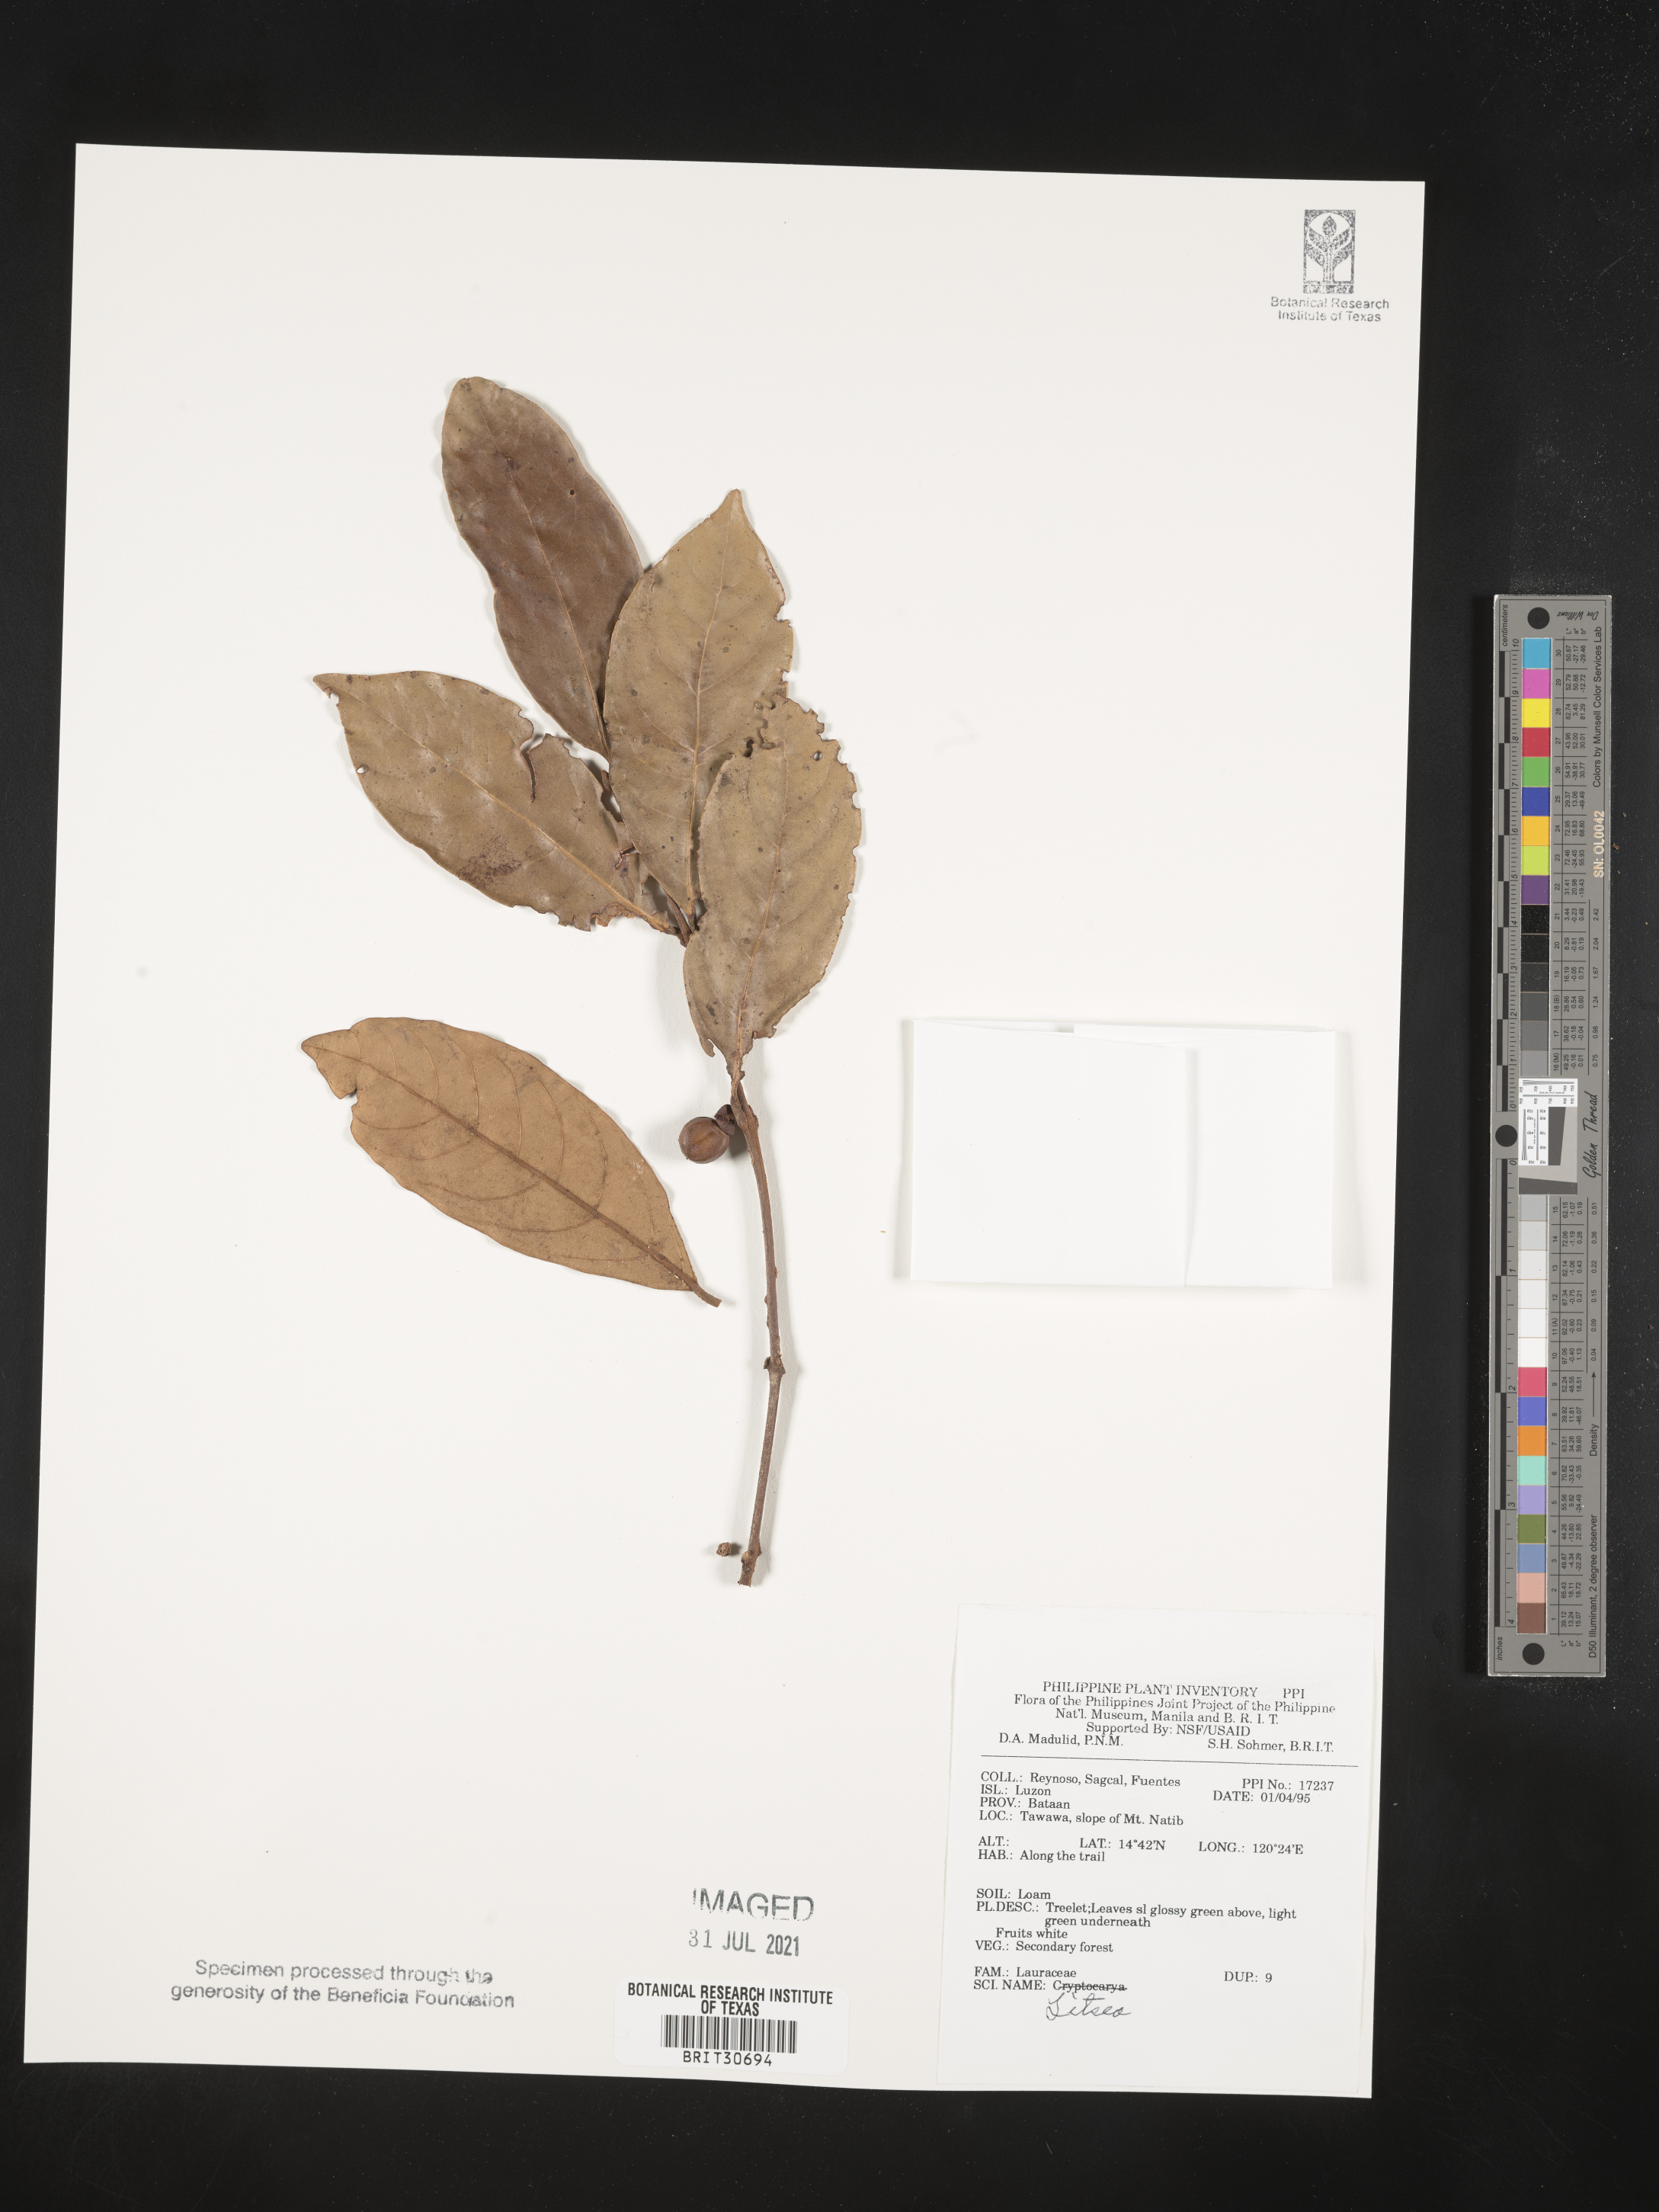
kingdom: Plantae
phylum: Tracheophyta
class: Magnoliopsida
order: Laurales
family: Lauraceae
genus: Litsea
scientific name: Litsea
